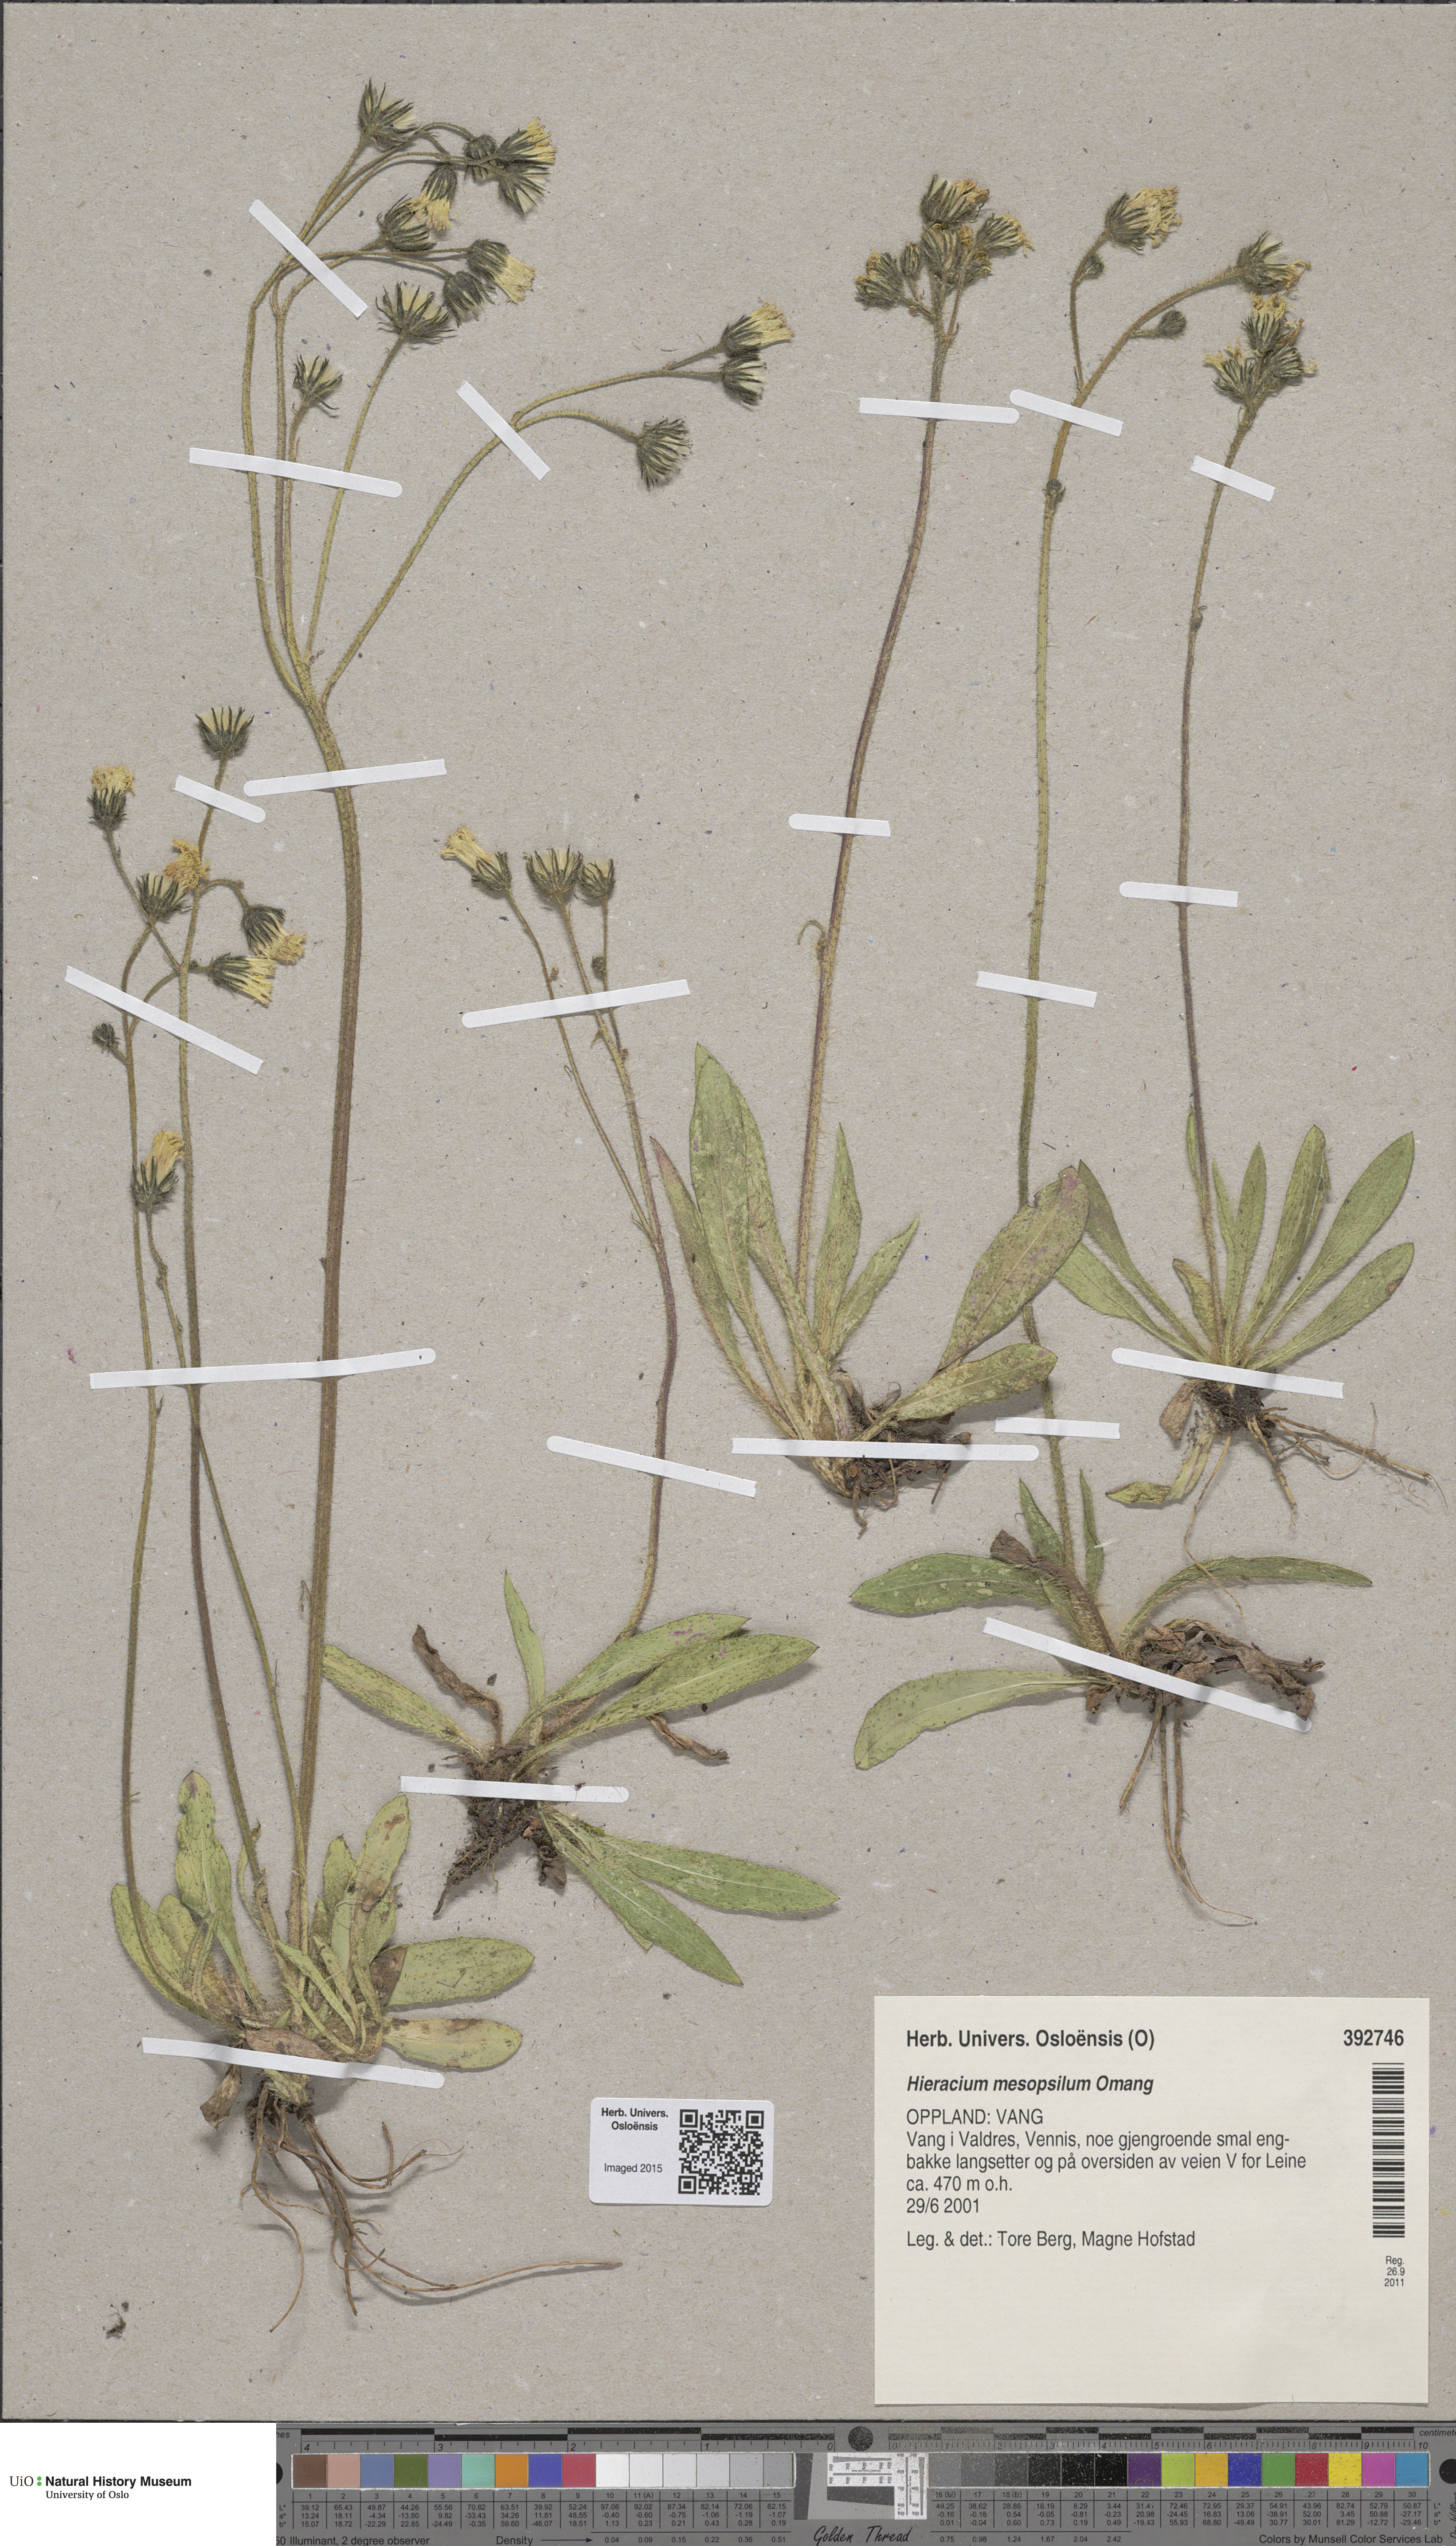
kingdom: Plantae
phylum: Tracheophyta
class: Magnoliopsida
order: Asterales
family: Asteraceae
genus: Pilosella
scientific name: Pilosella dubia
